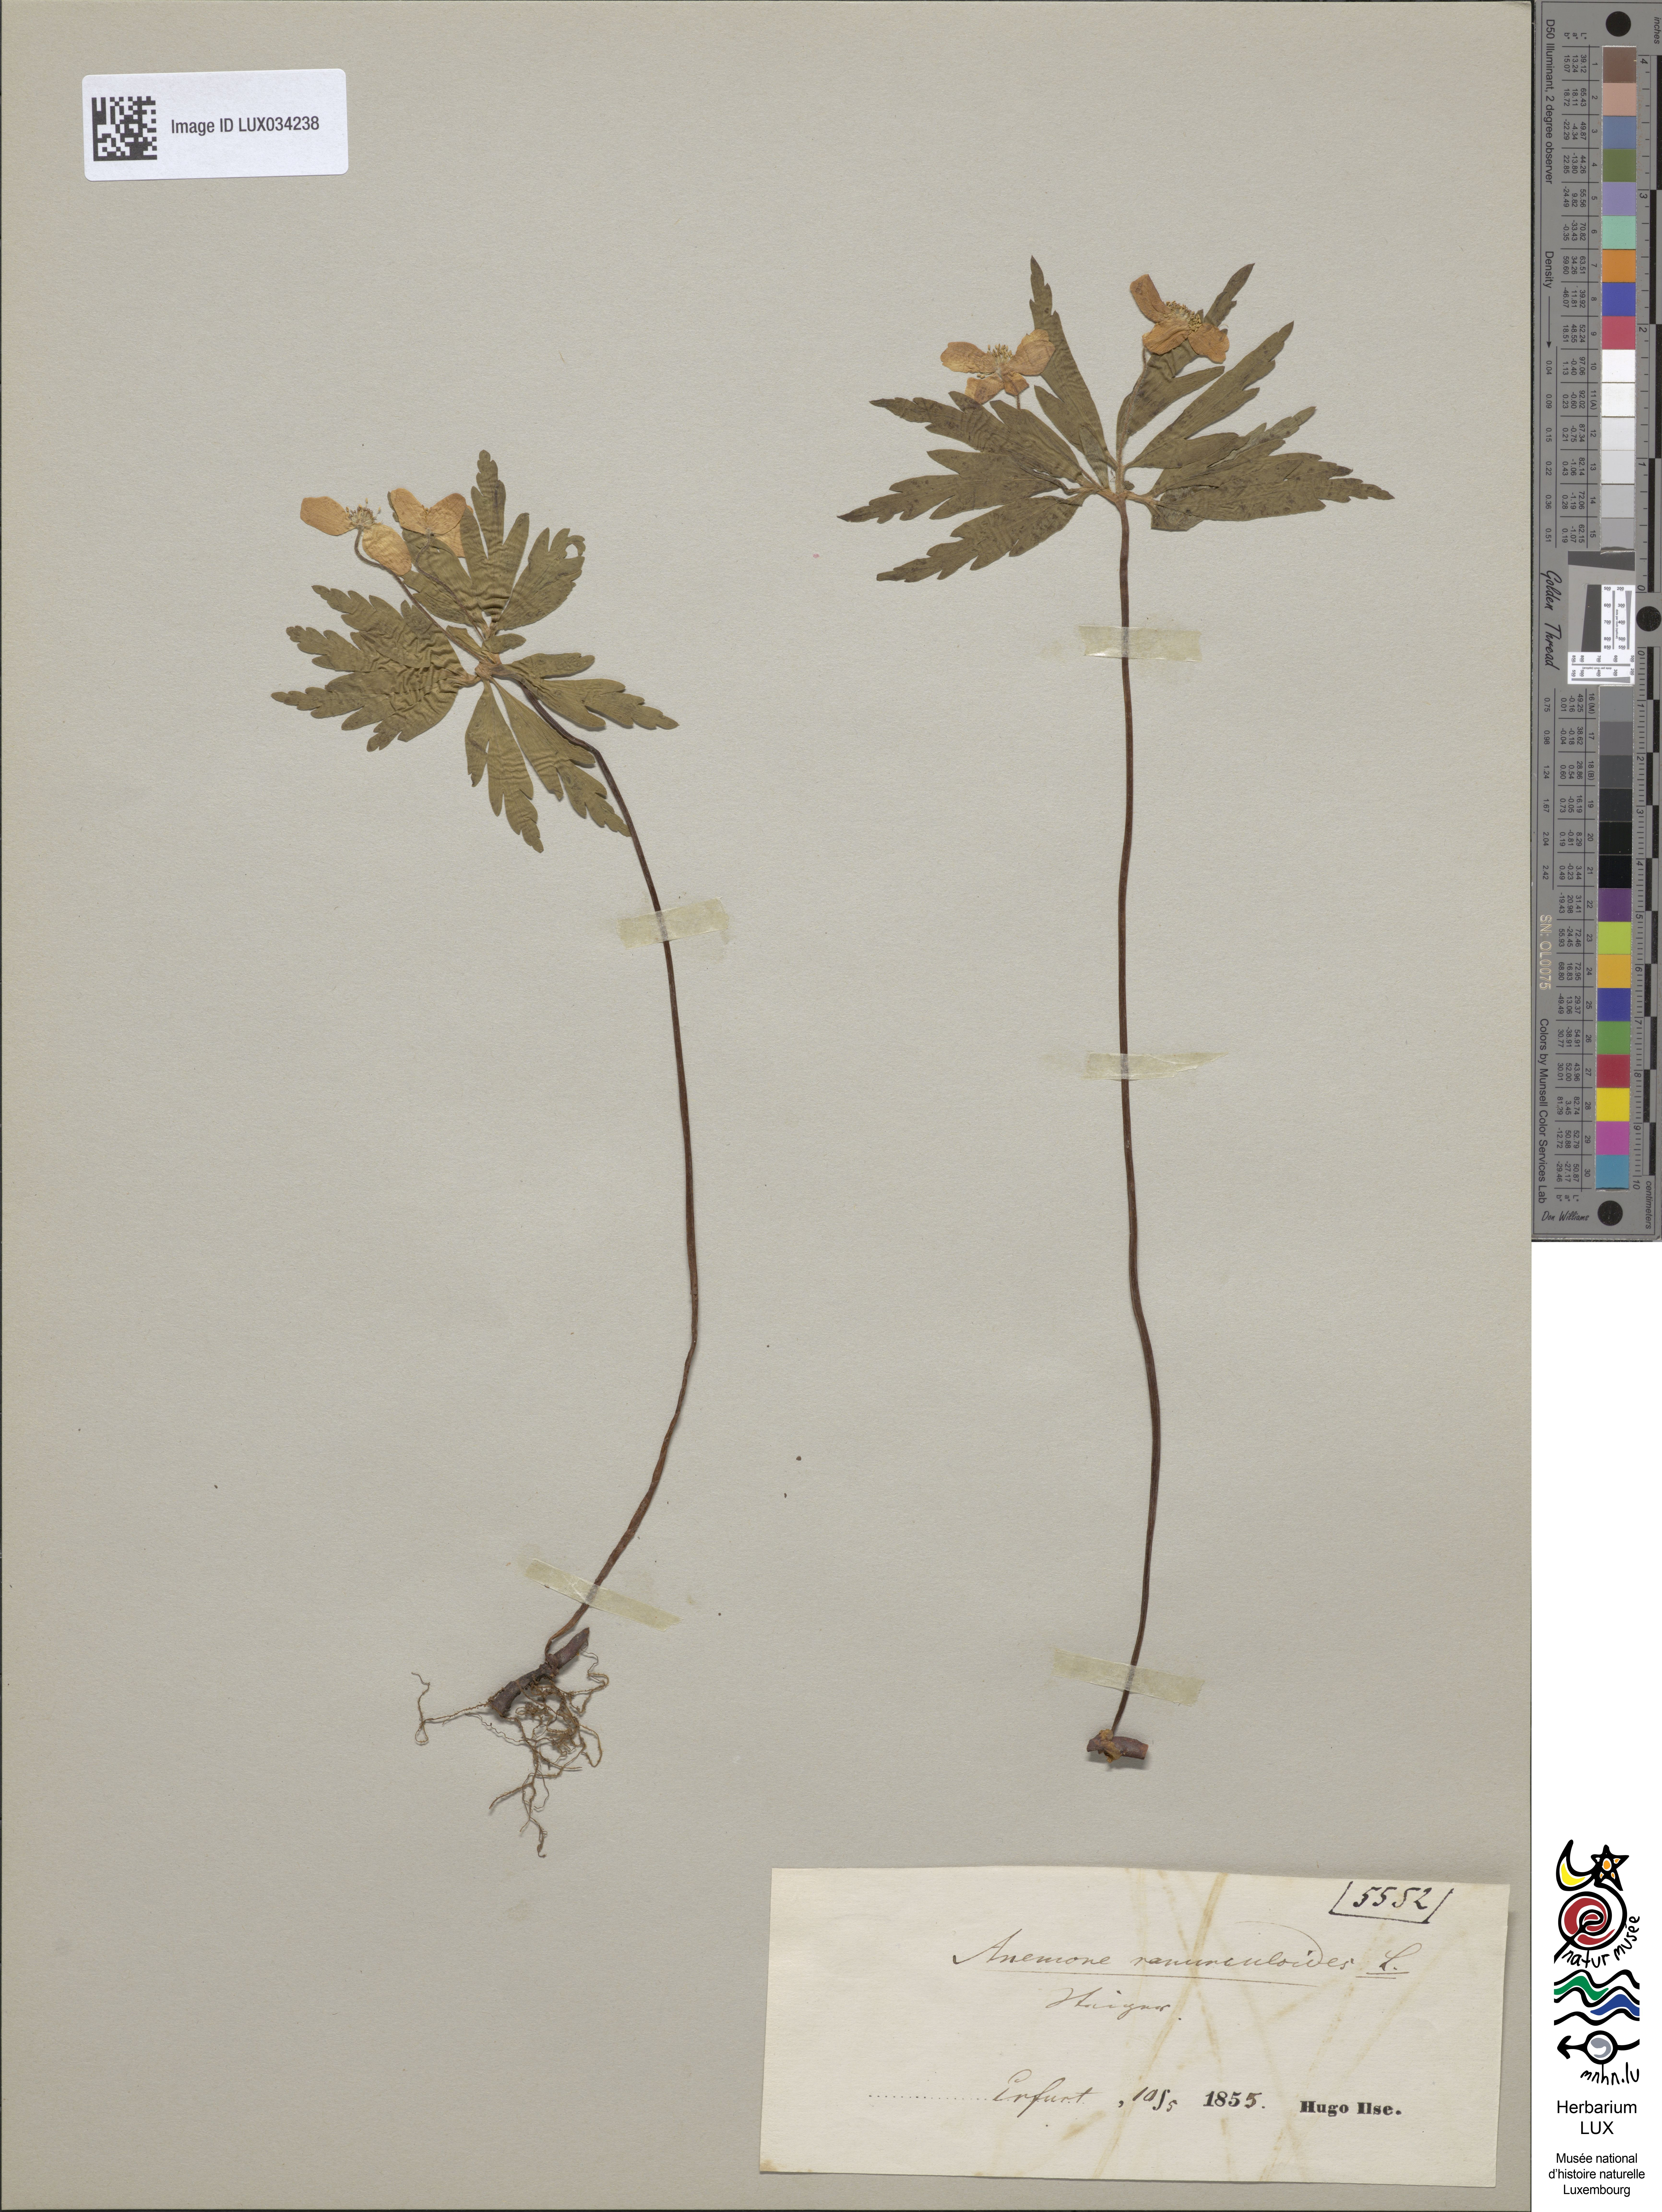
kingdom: Plantae
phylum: Tracheophyta
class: Magnoliopsida
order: Ranunculales
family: Ranunculaceae
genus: Anemone
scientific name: Anemone ranunculoides
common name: Yellow anemone
